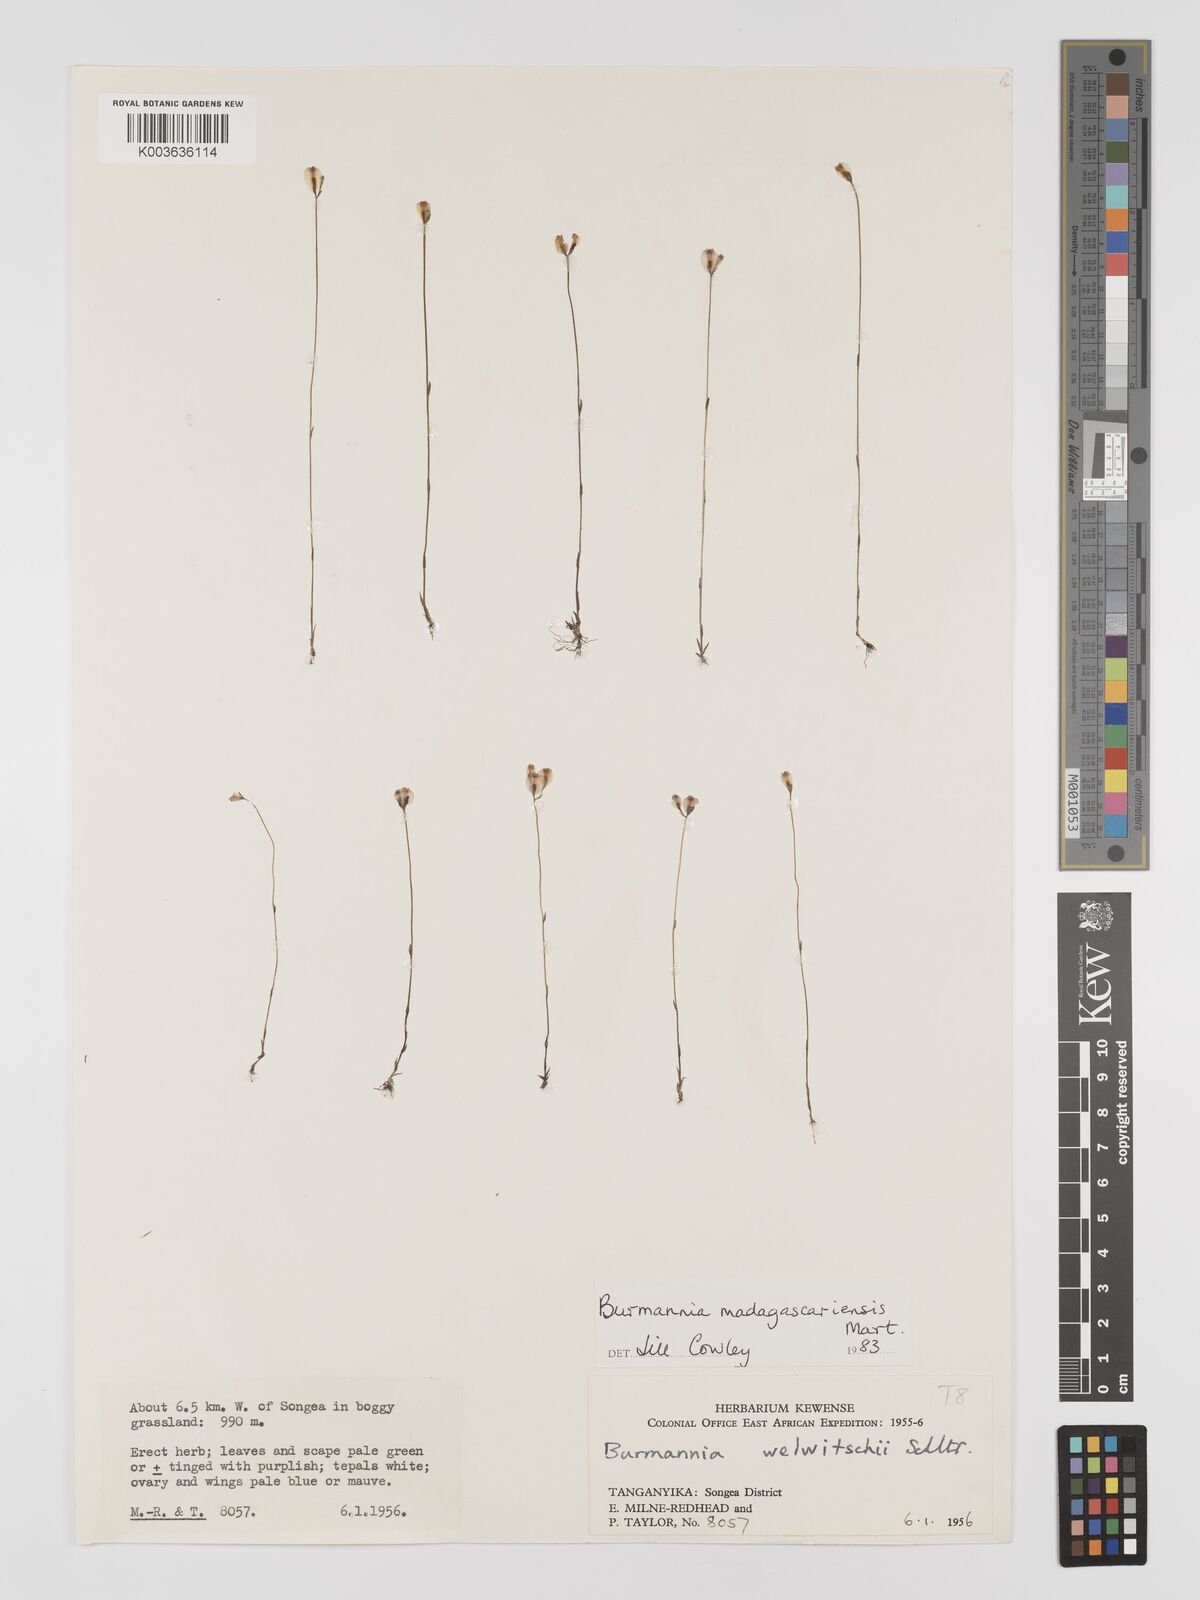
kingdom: Plantae
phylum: Tracheophyta
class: Liliopsida
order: Dioscoreales
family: Burmanniaceae
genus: Burmannia
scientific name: Burmannia madagascariensis
